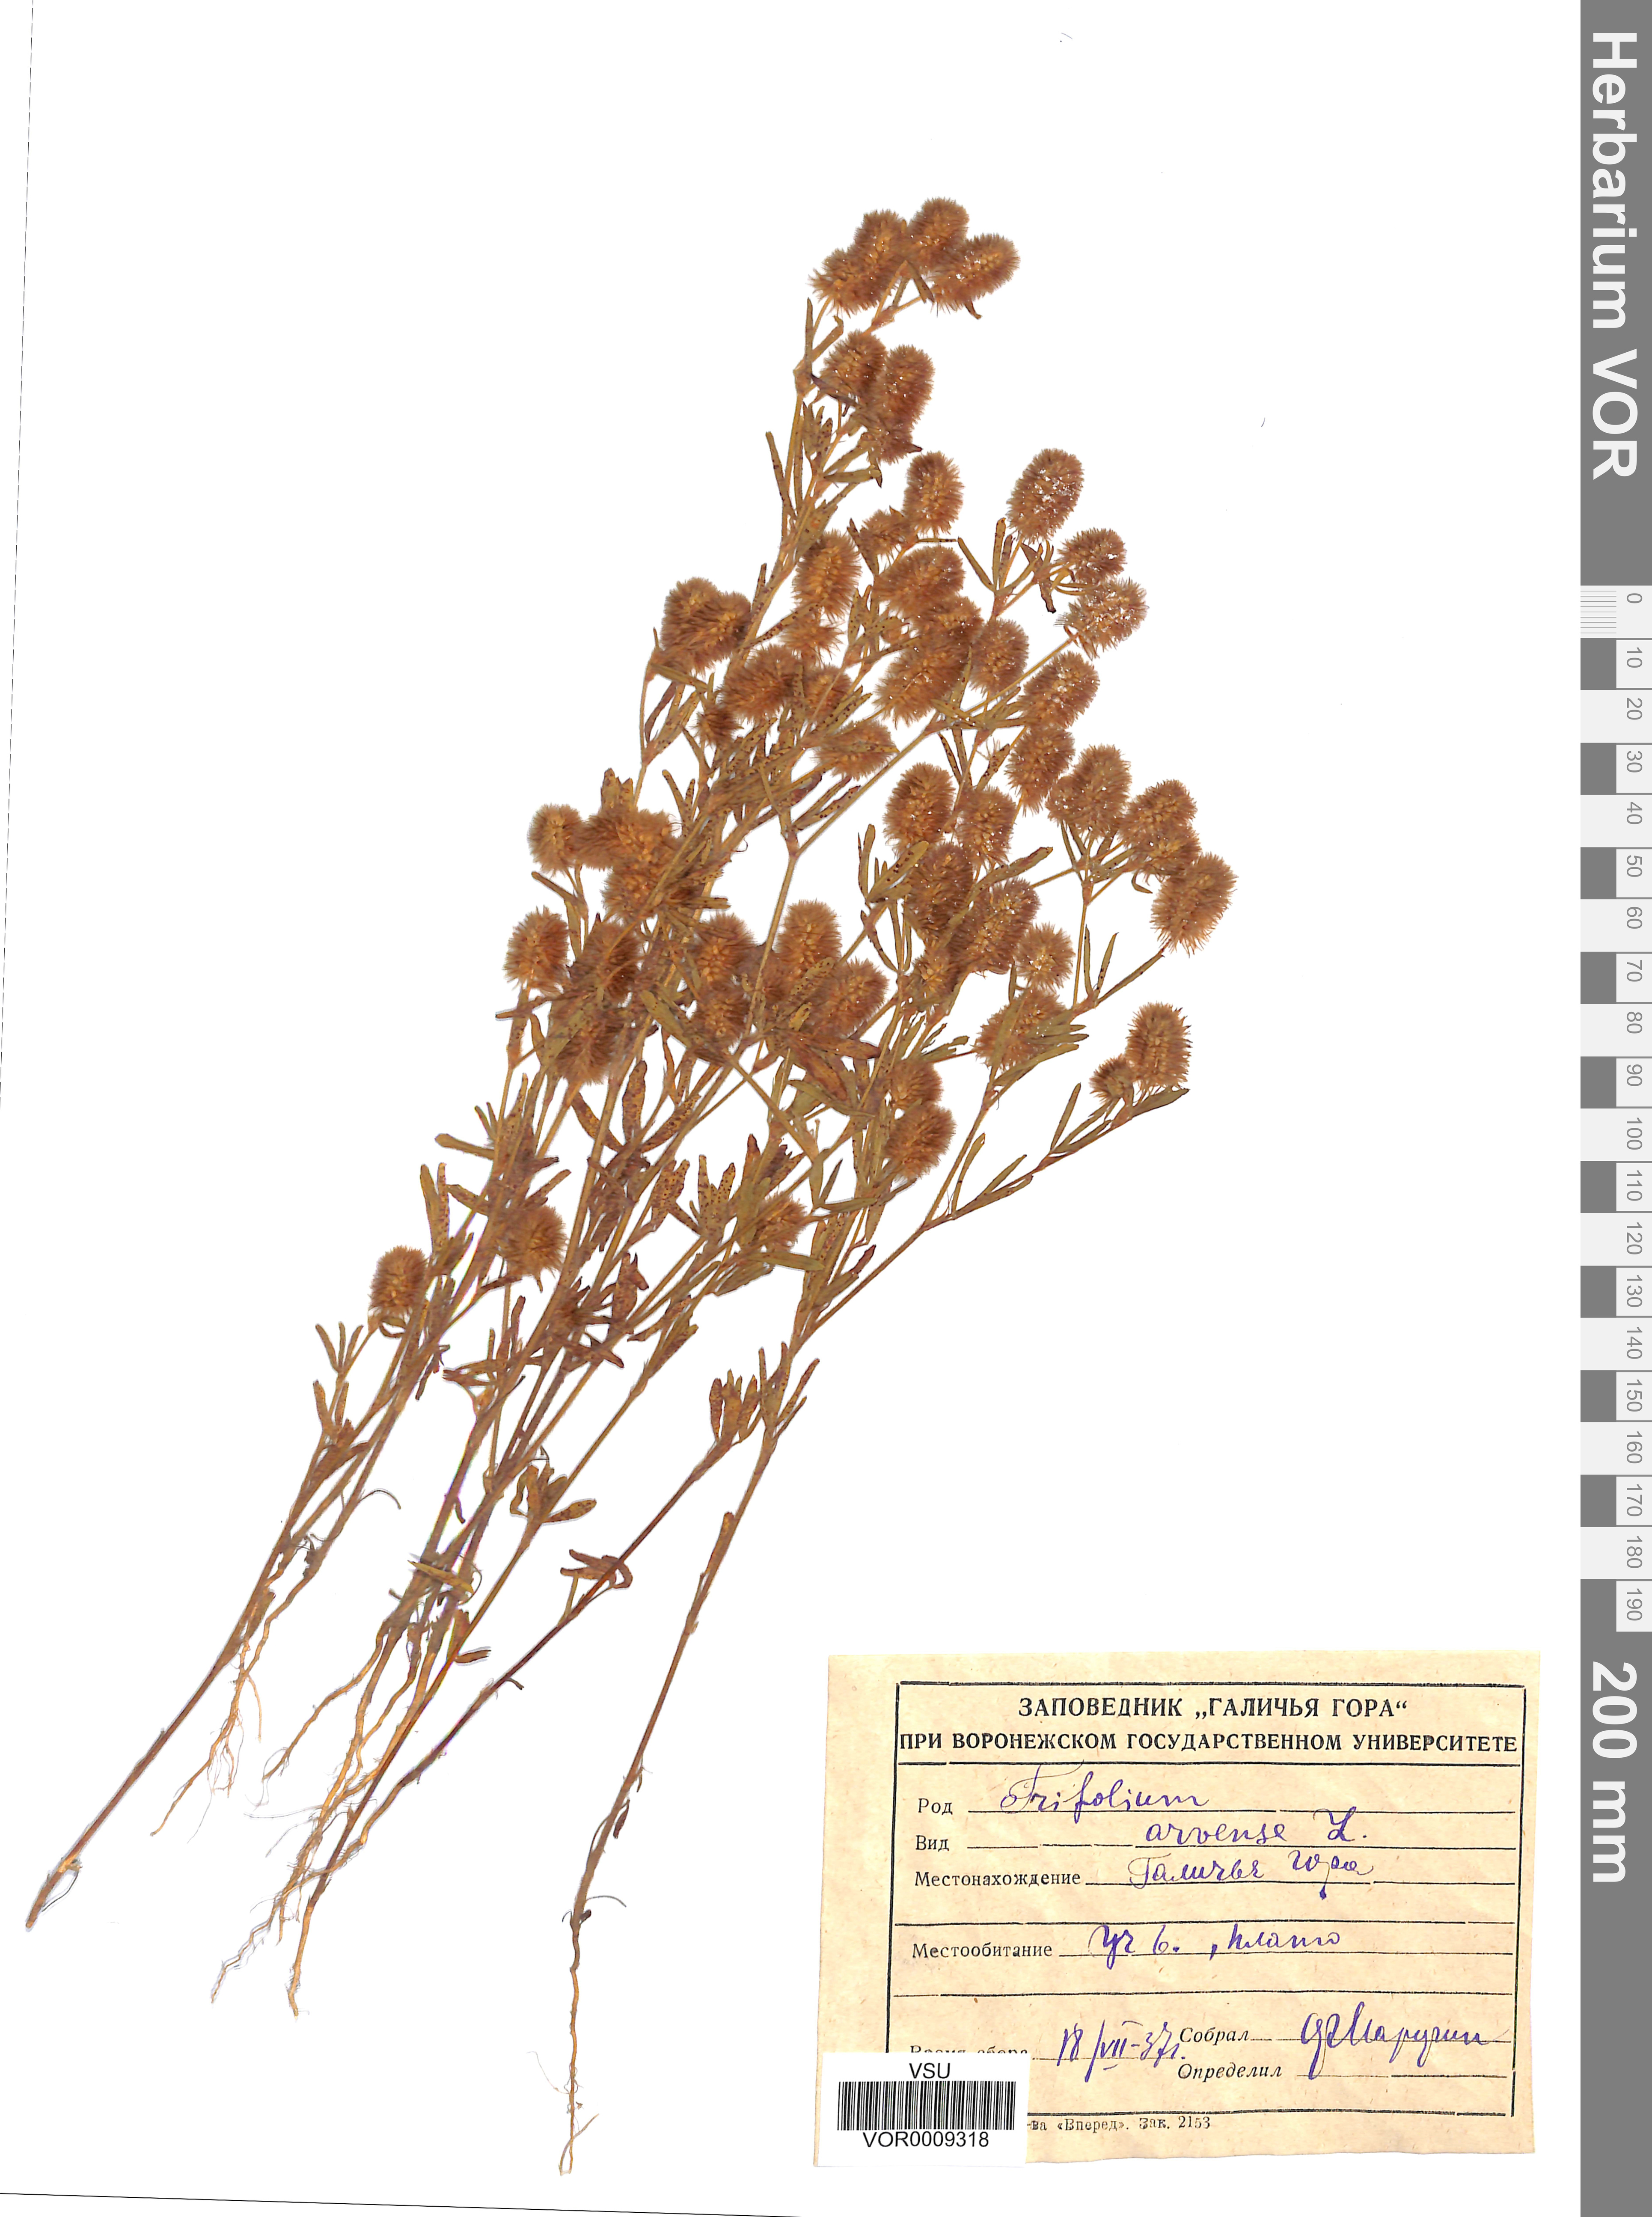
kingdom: Plantae
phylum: Tracheophyta
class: Magnoliopsida
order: Fabales
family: Fabaceae
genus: Trifolium
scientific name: Trifolium arvense
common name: Hare's-foot clover
